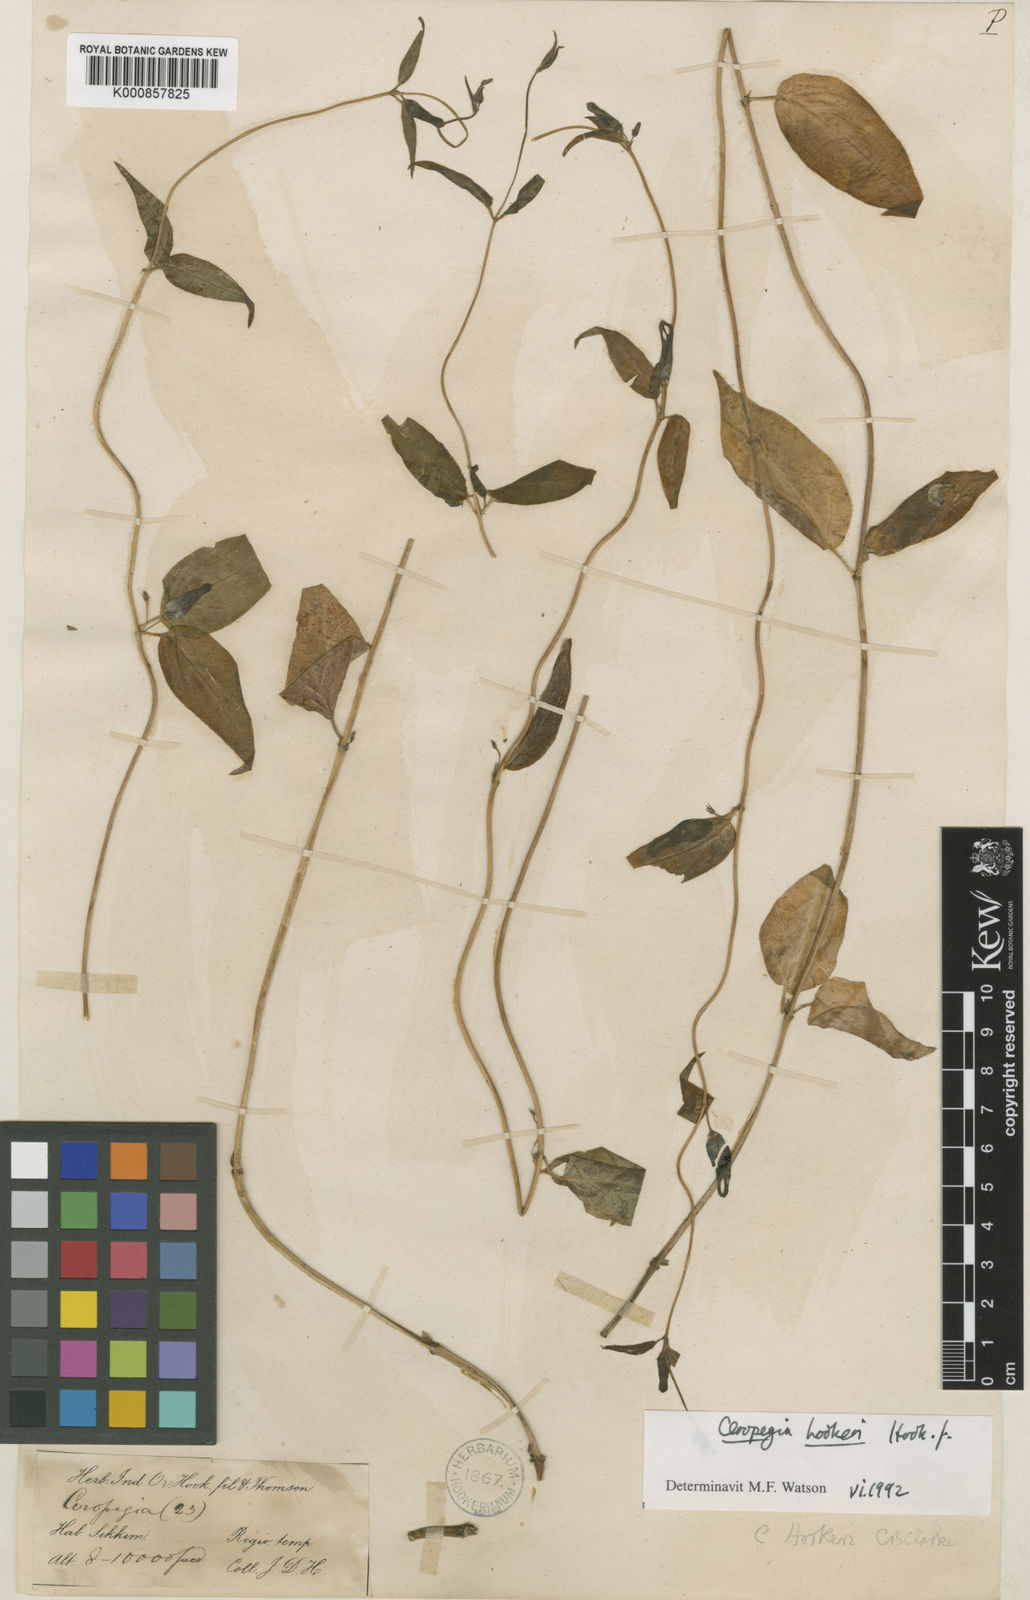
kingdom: Plantae
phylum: Tracheophyta
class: Magnoliopsida
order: Gentianales
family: Apocynaceae
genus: Ceropegia
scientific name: Ceropegia hookeri
